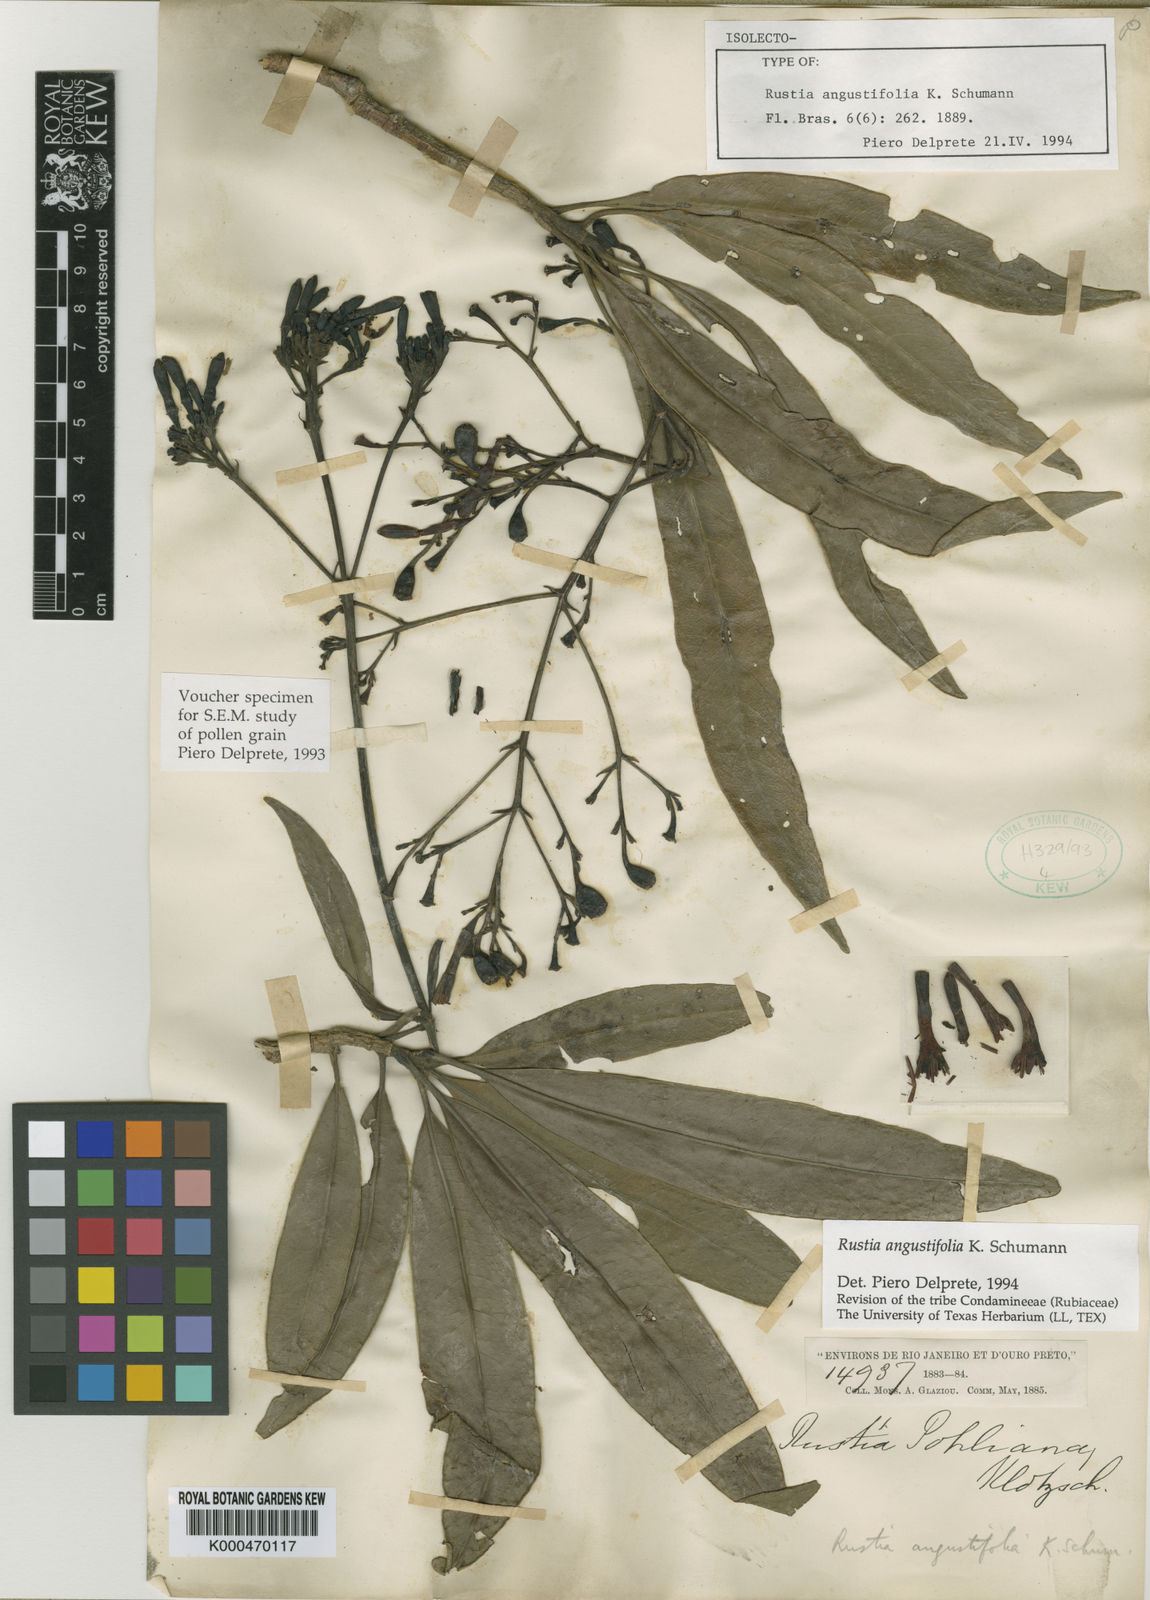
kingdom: Plantae
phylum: Tracheophyta
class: Magnoliopsida
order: Gentianales
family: Rubiaceae
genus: Rustia
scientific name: Rustia angustifolia
